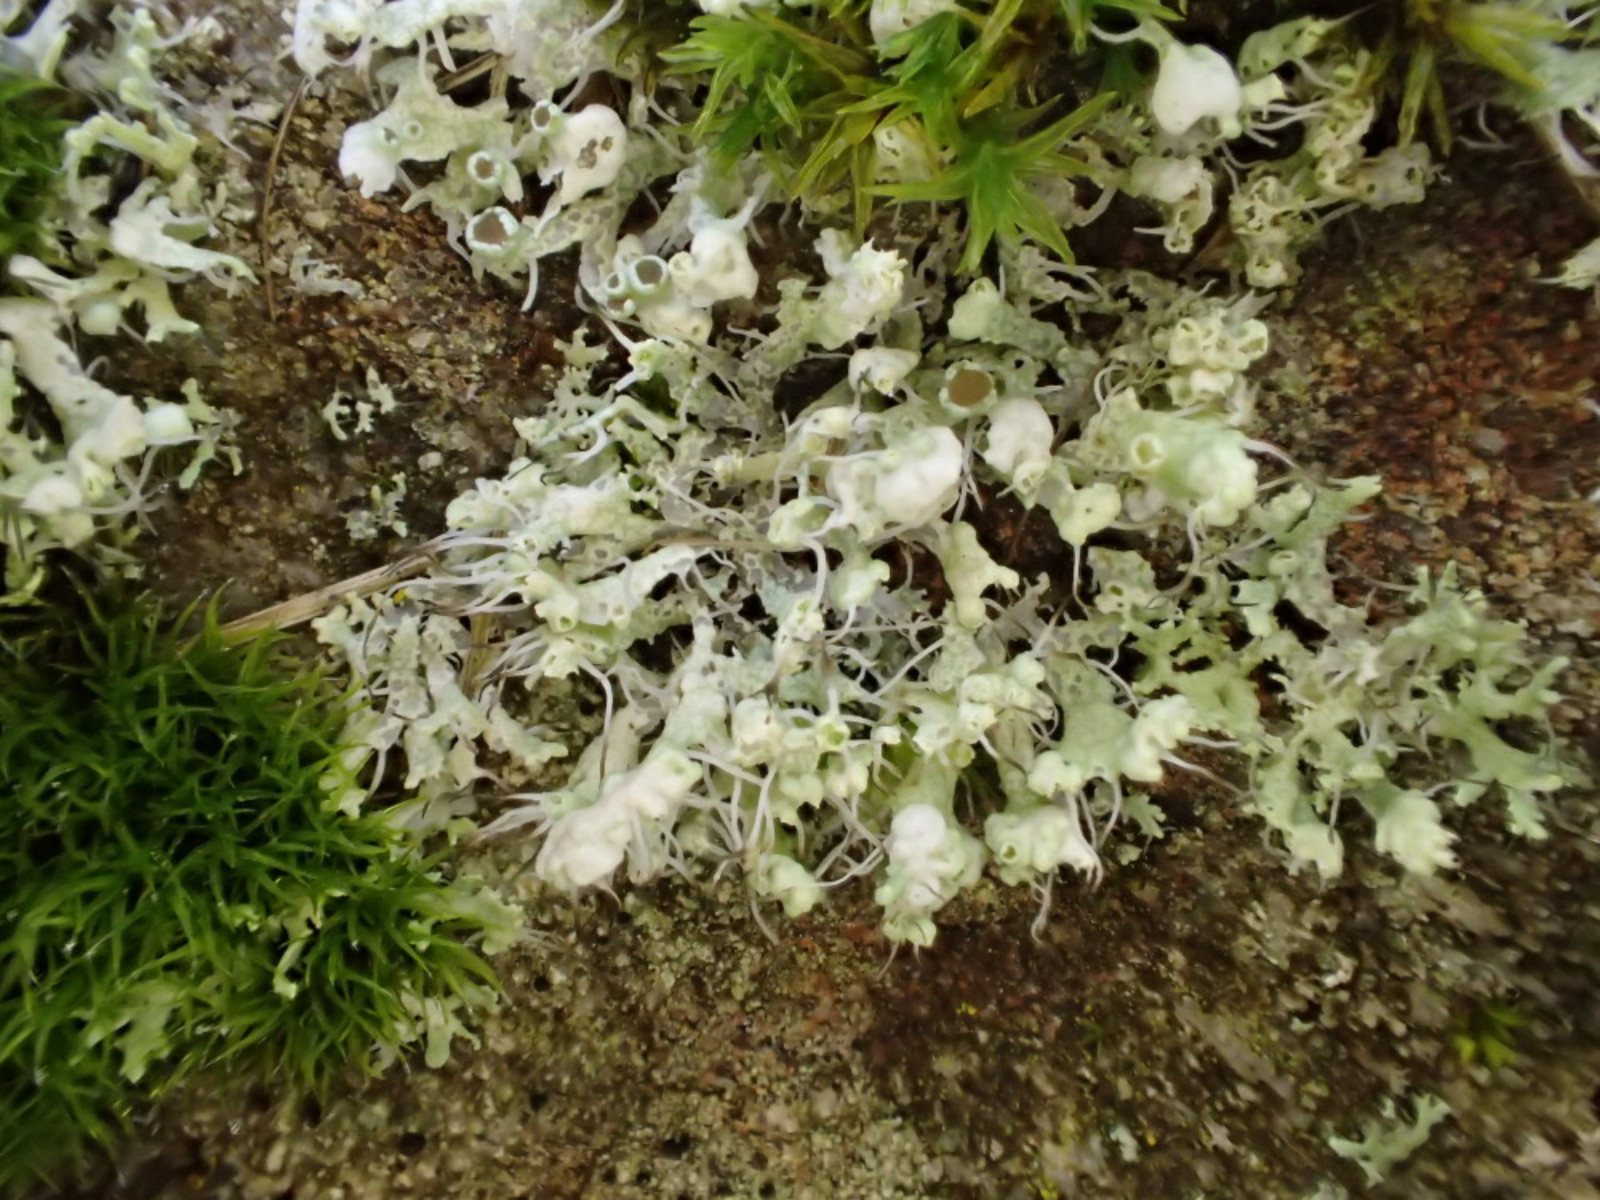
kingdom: Fungi
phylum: Ascomycota
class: Lecanoromycetes
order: Caliciales
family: Physciaceae
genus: Physcia
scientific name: Physcia adscendens
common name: hætte-rosetlav
